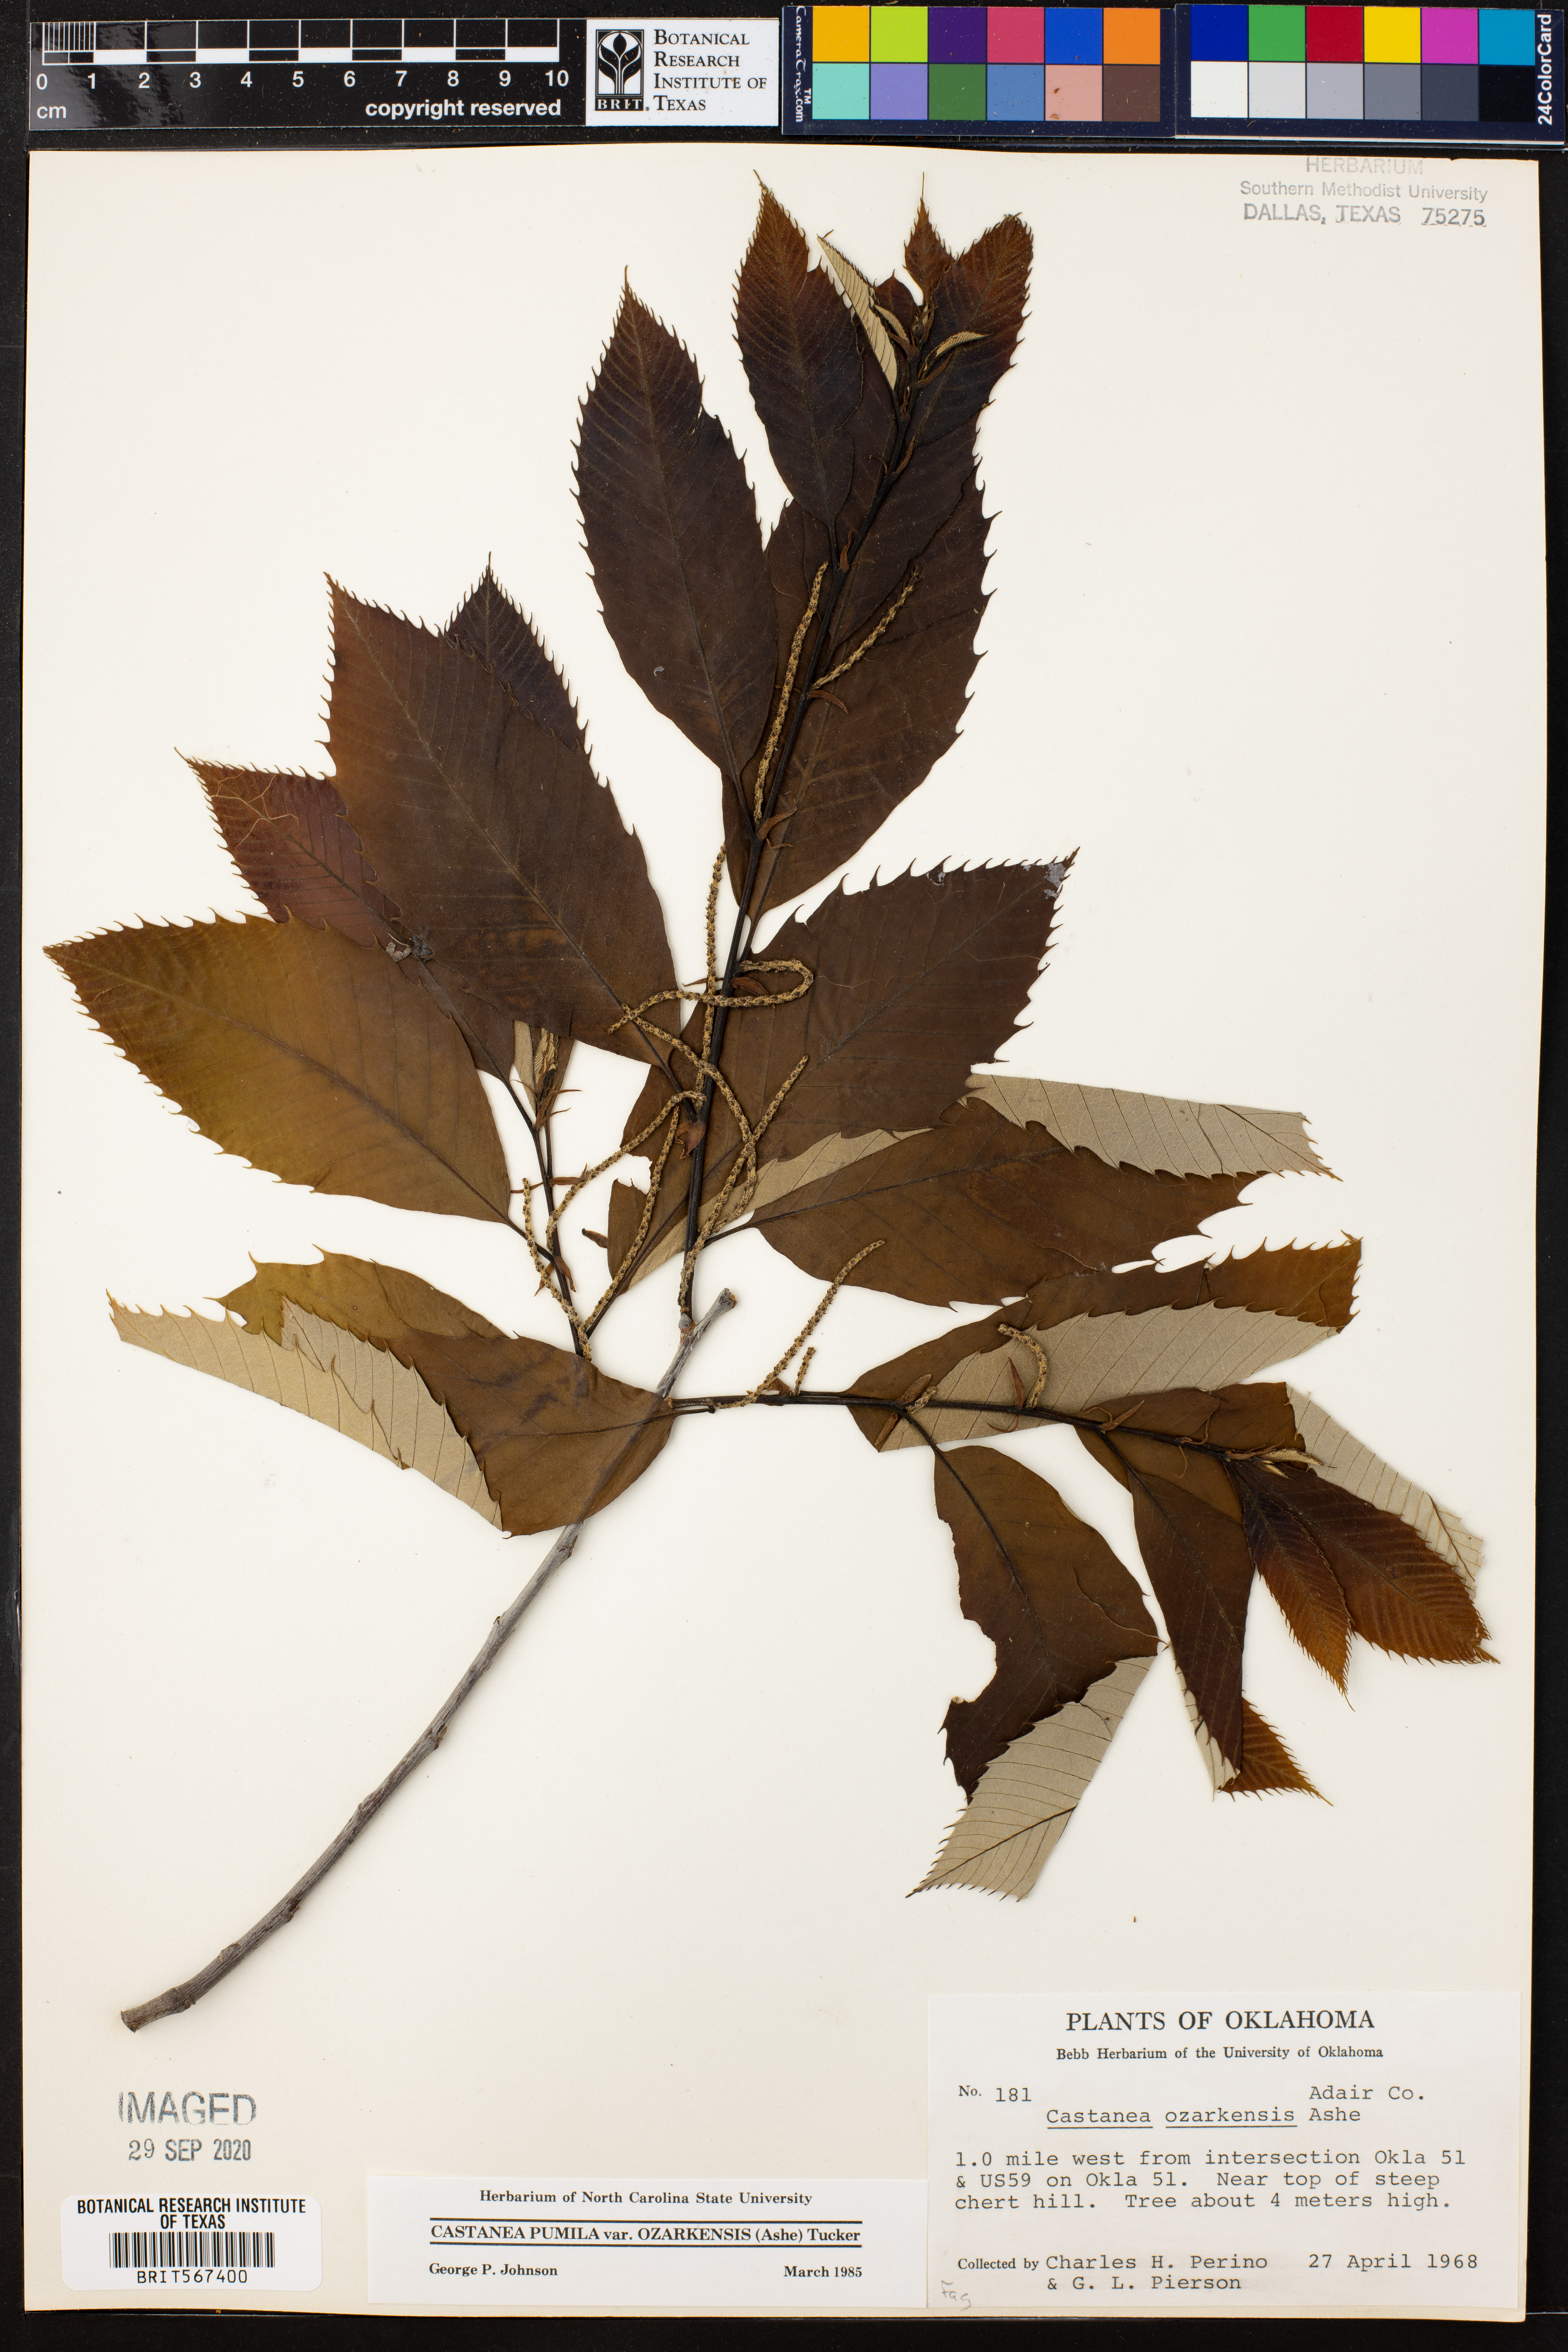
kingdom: Plantae
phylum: Tracheophyta
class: Magnoliopsida
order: Fagales
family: Fagaceae
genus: Castanea
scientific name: Castanea ozarkensis
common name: Ozark chinkapin
